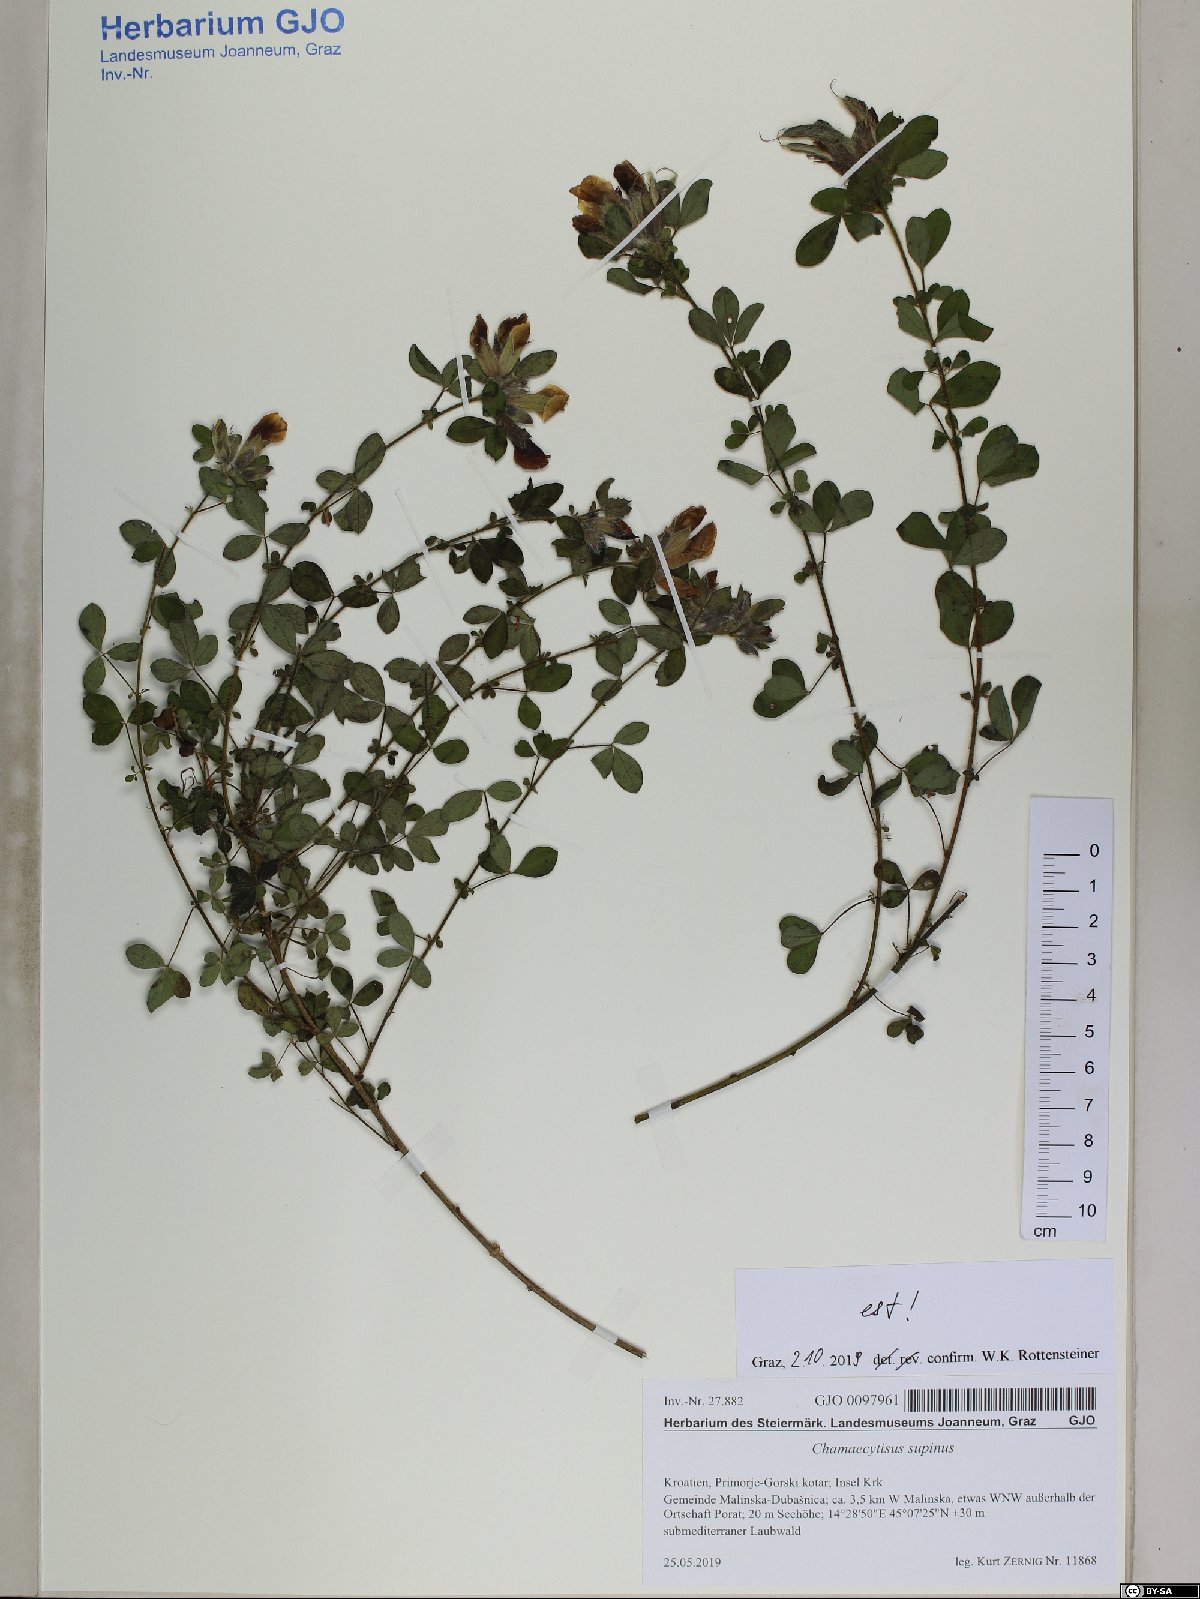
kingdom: Plantae
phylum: Tracheophyta
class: Magnoliopsida
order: Fabales
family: Fabaceae
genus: Chamaecytisus
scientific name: Chamaecytisus supinus
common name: Clustered broom
